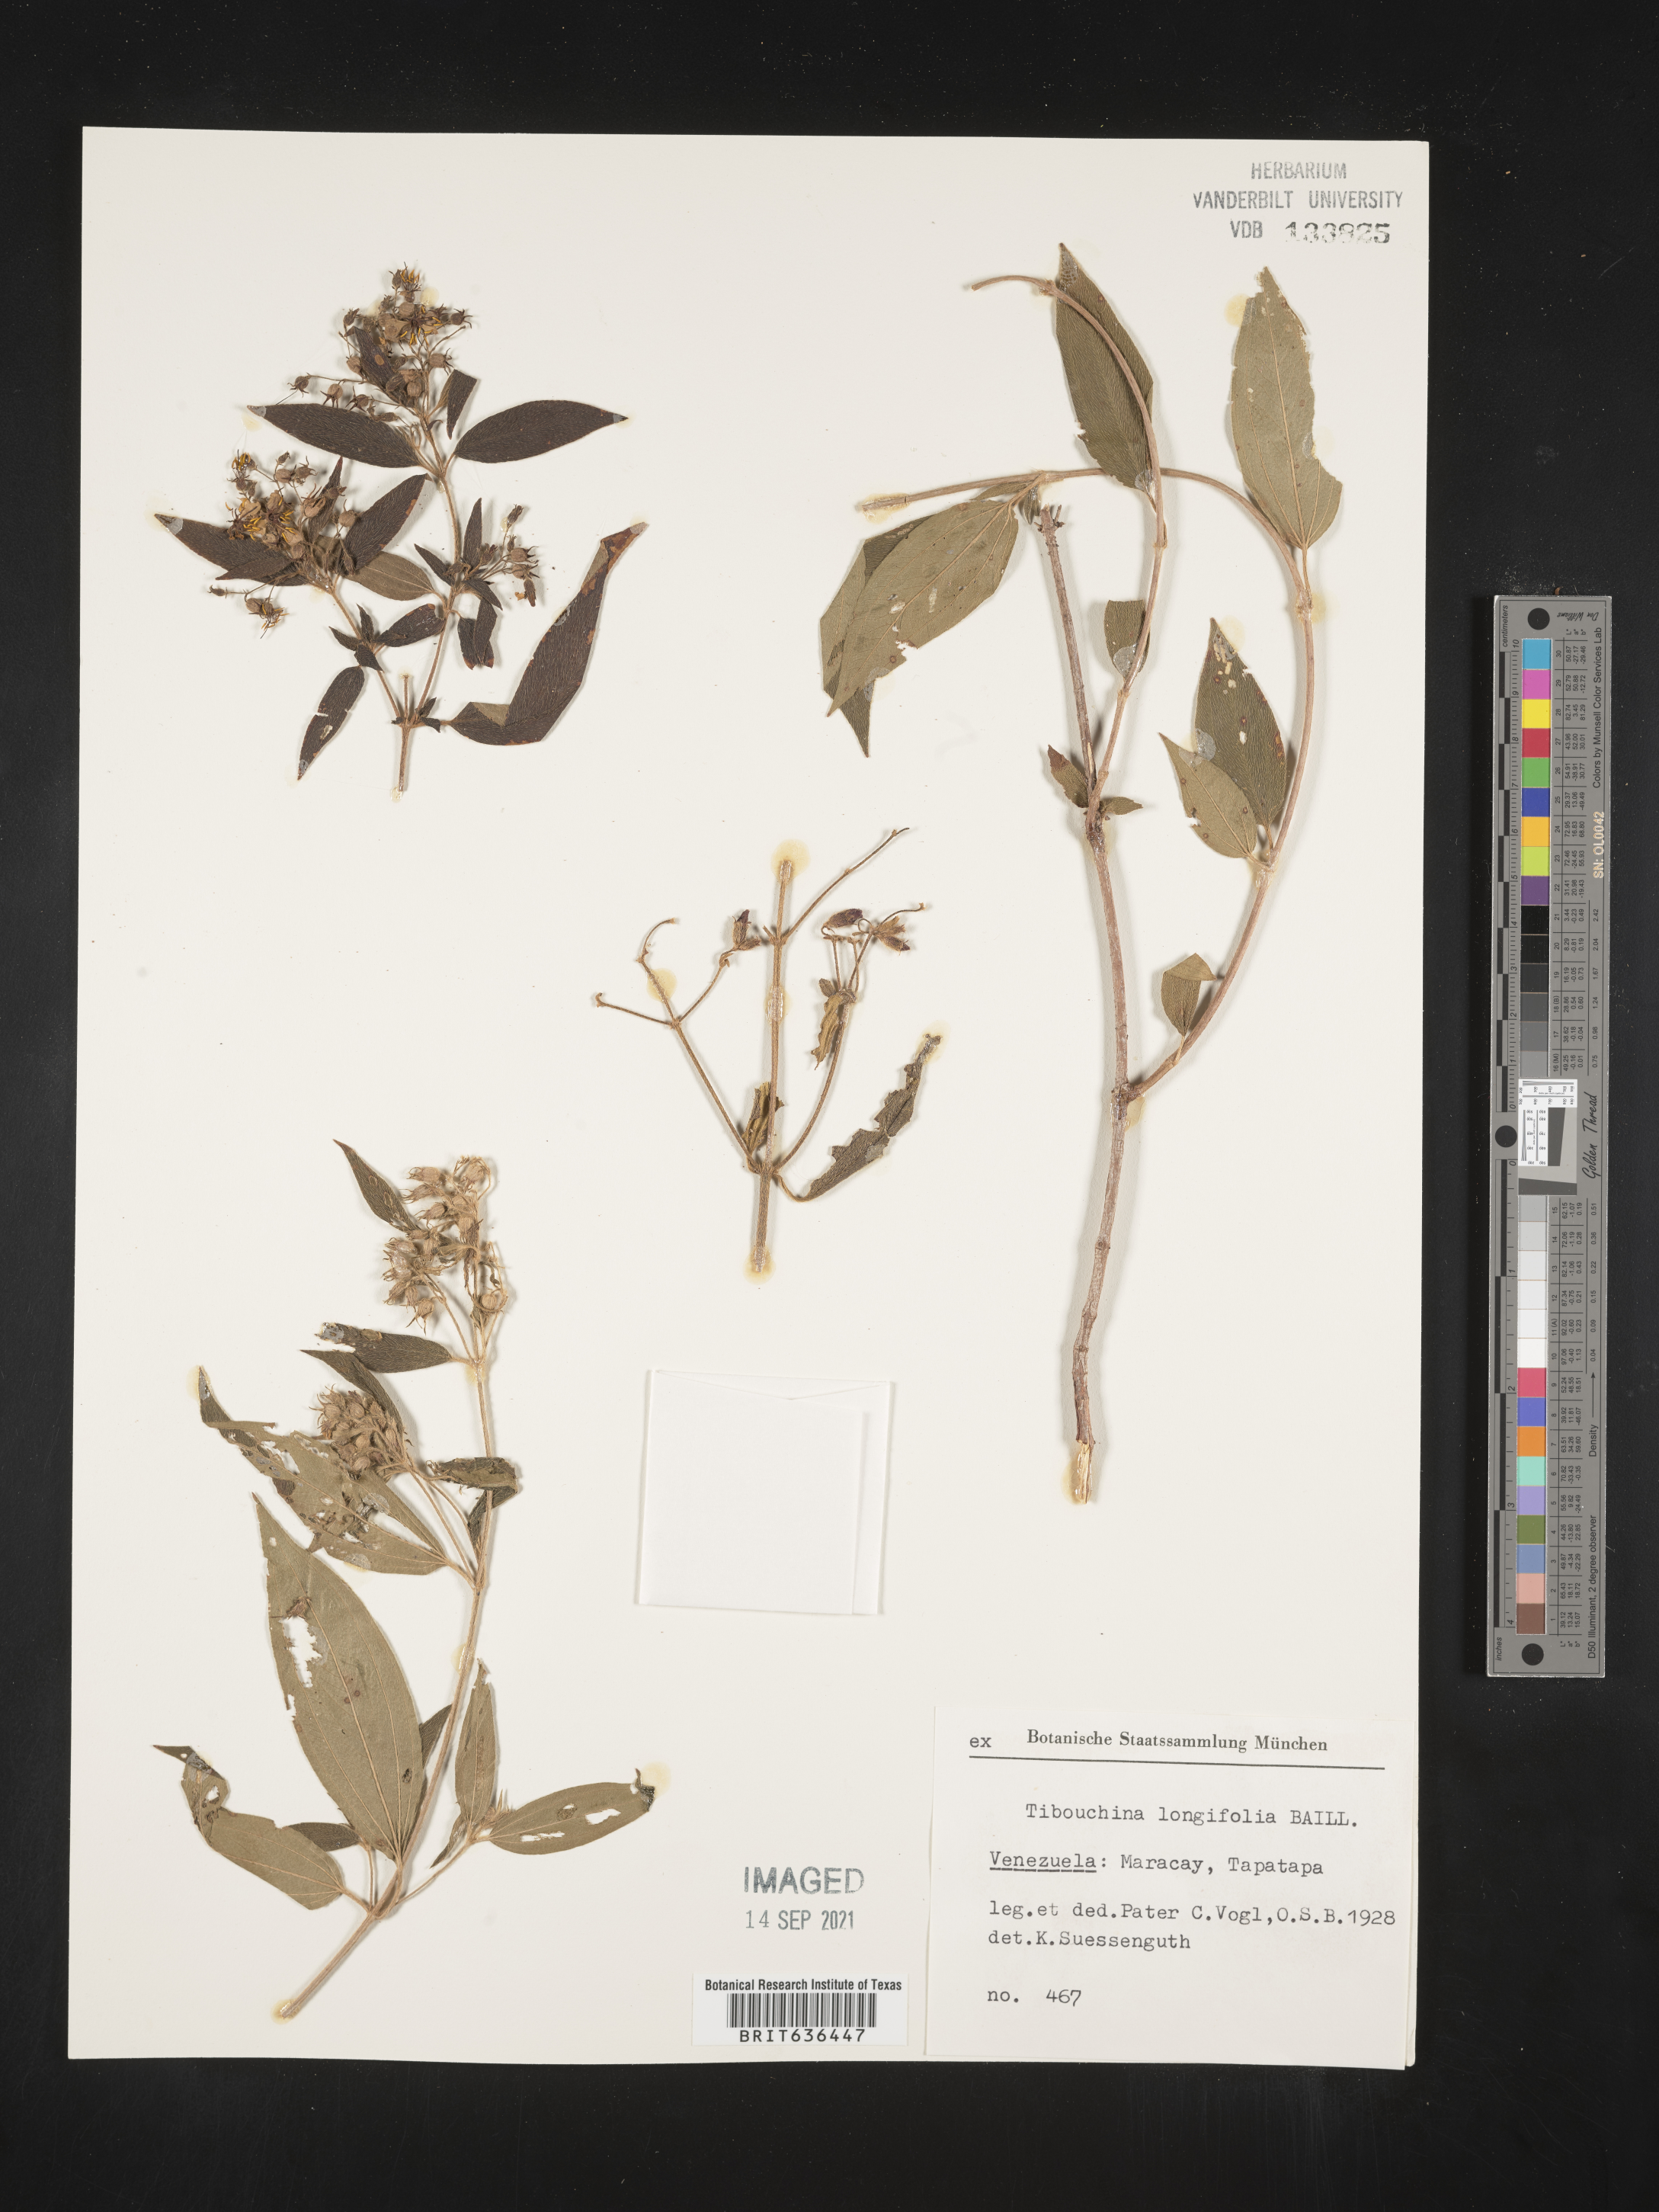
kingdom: Plantae
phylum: Tracheophyta
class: Magnoliopsida
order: Myrtales
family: Melastomataceae
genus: Tibouchina
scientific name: Tibouchina
